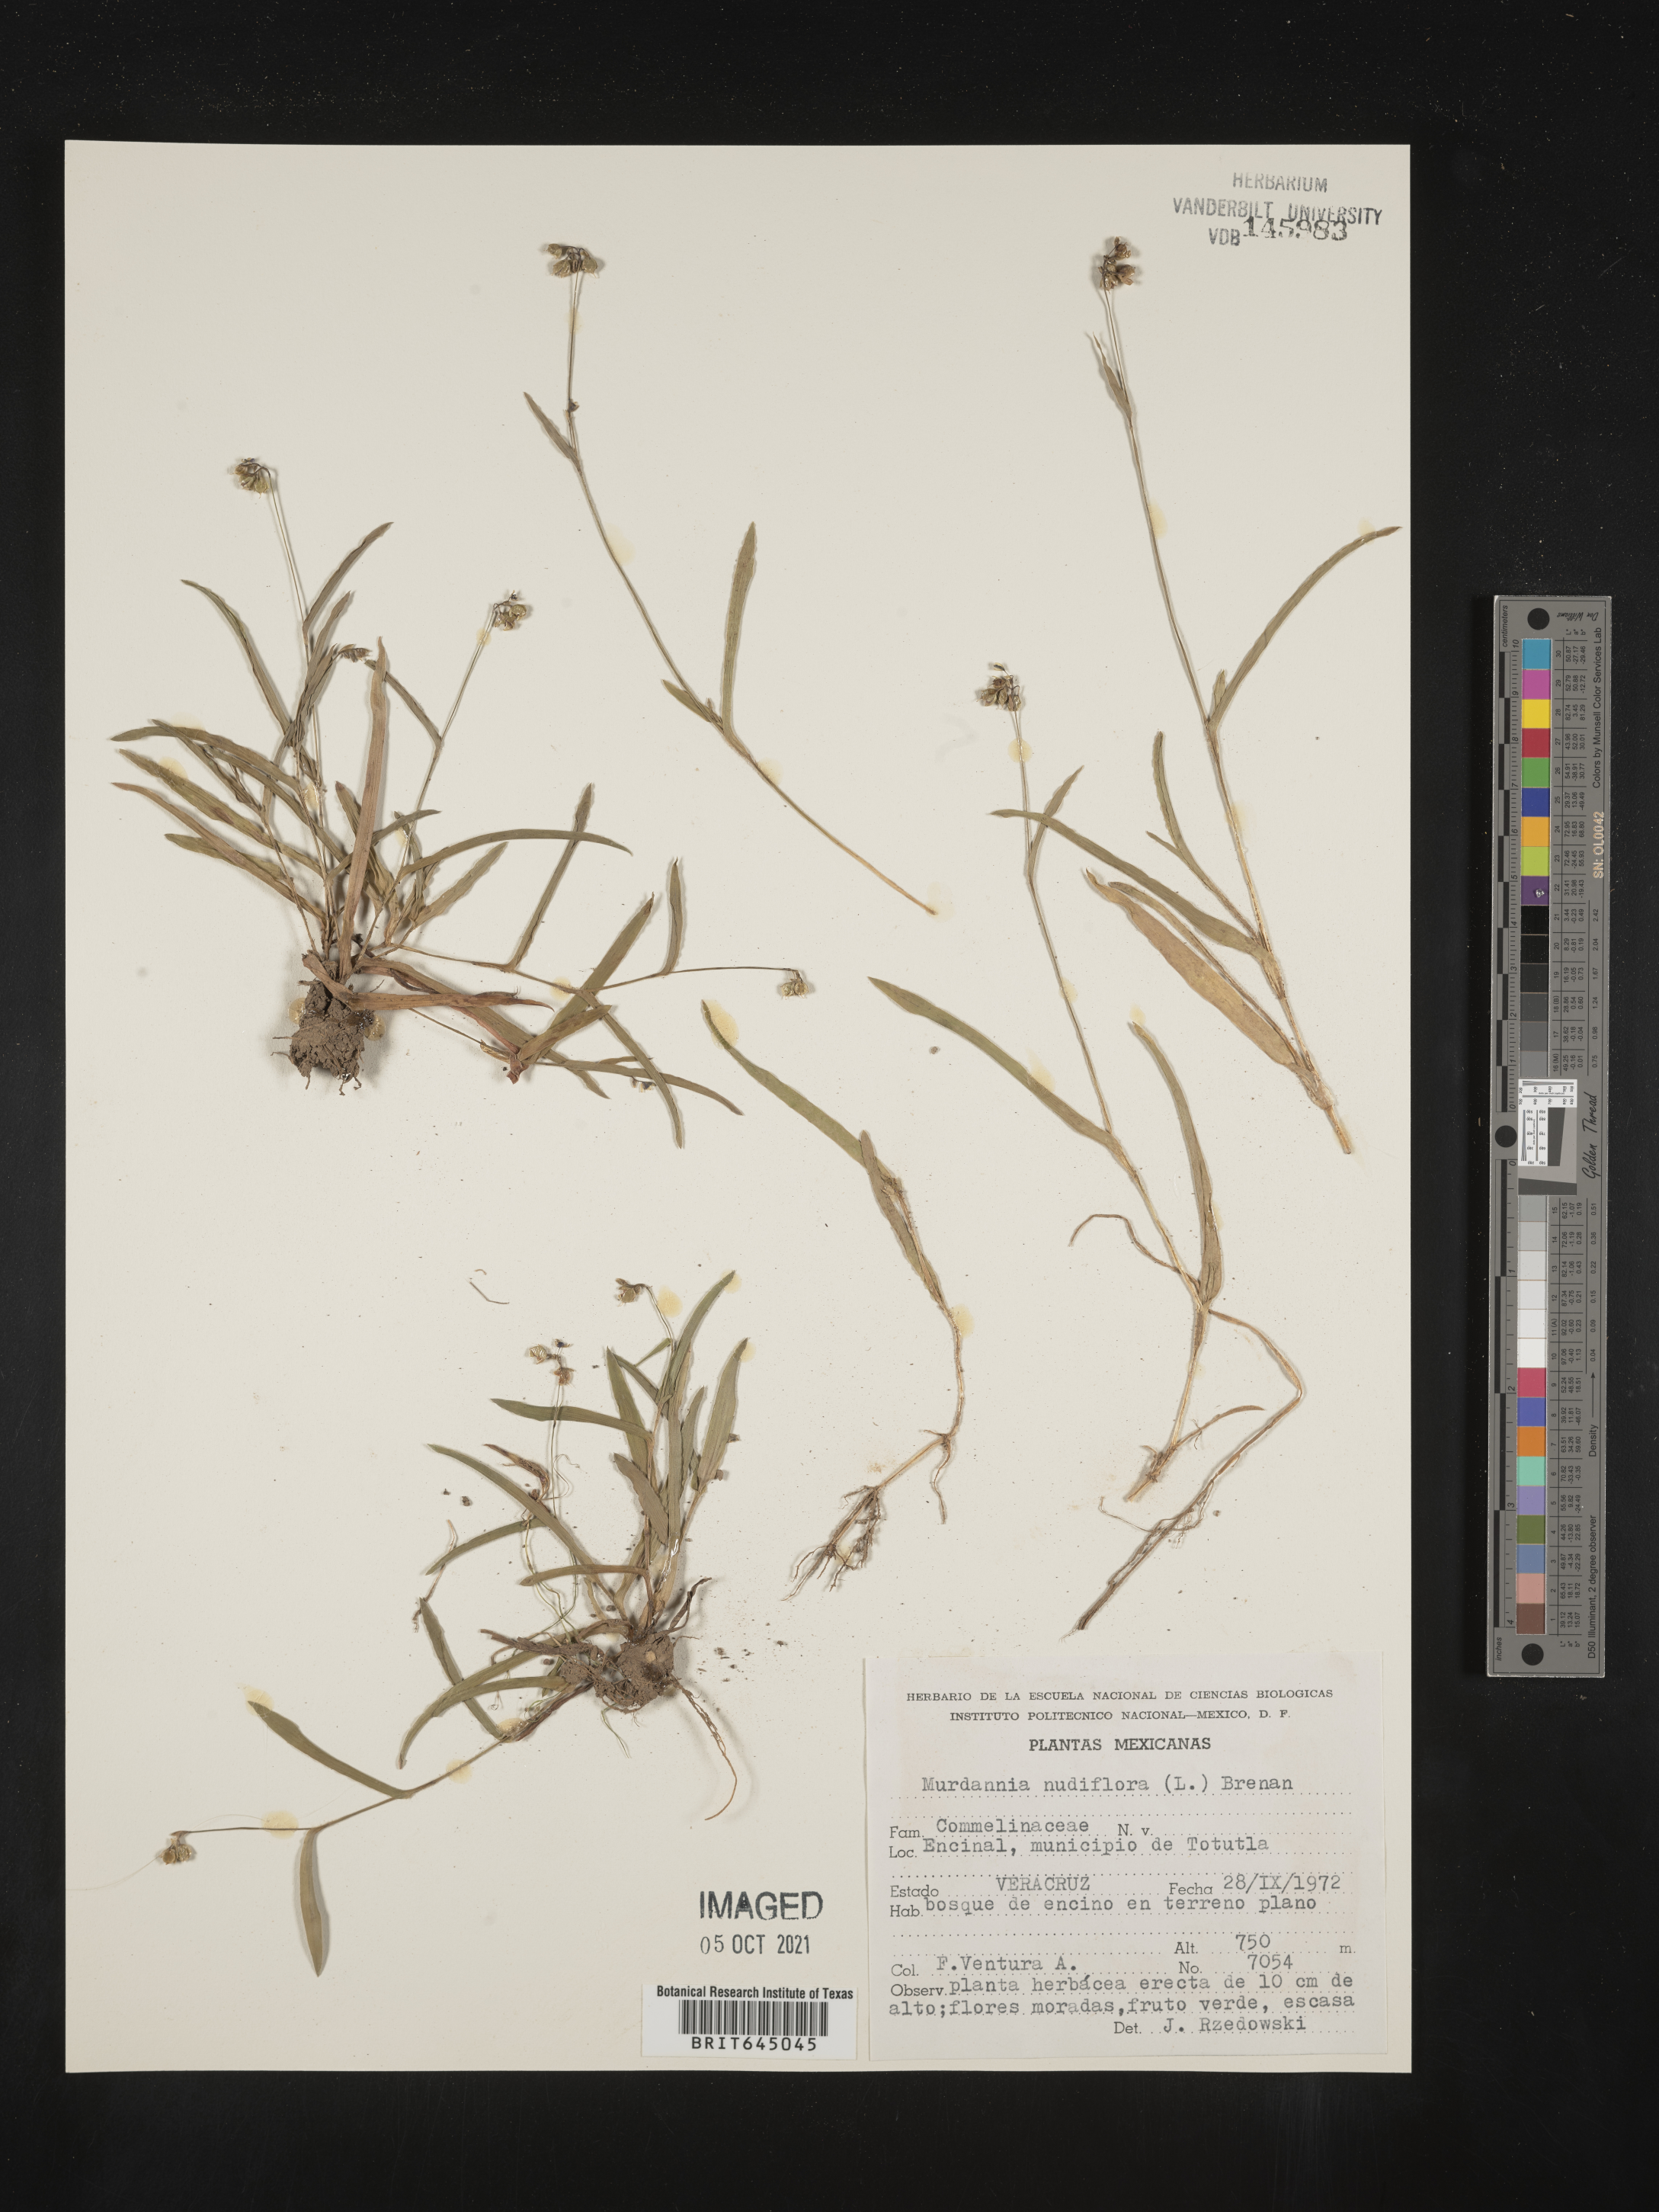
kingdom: Plantae
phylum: Tracheophyta
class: Liliopsida
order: Commelinales
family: Commelinaceae
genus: Murdannia
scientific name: Murdannia
